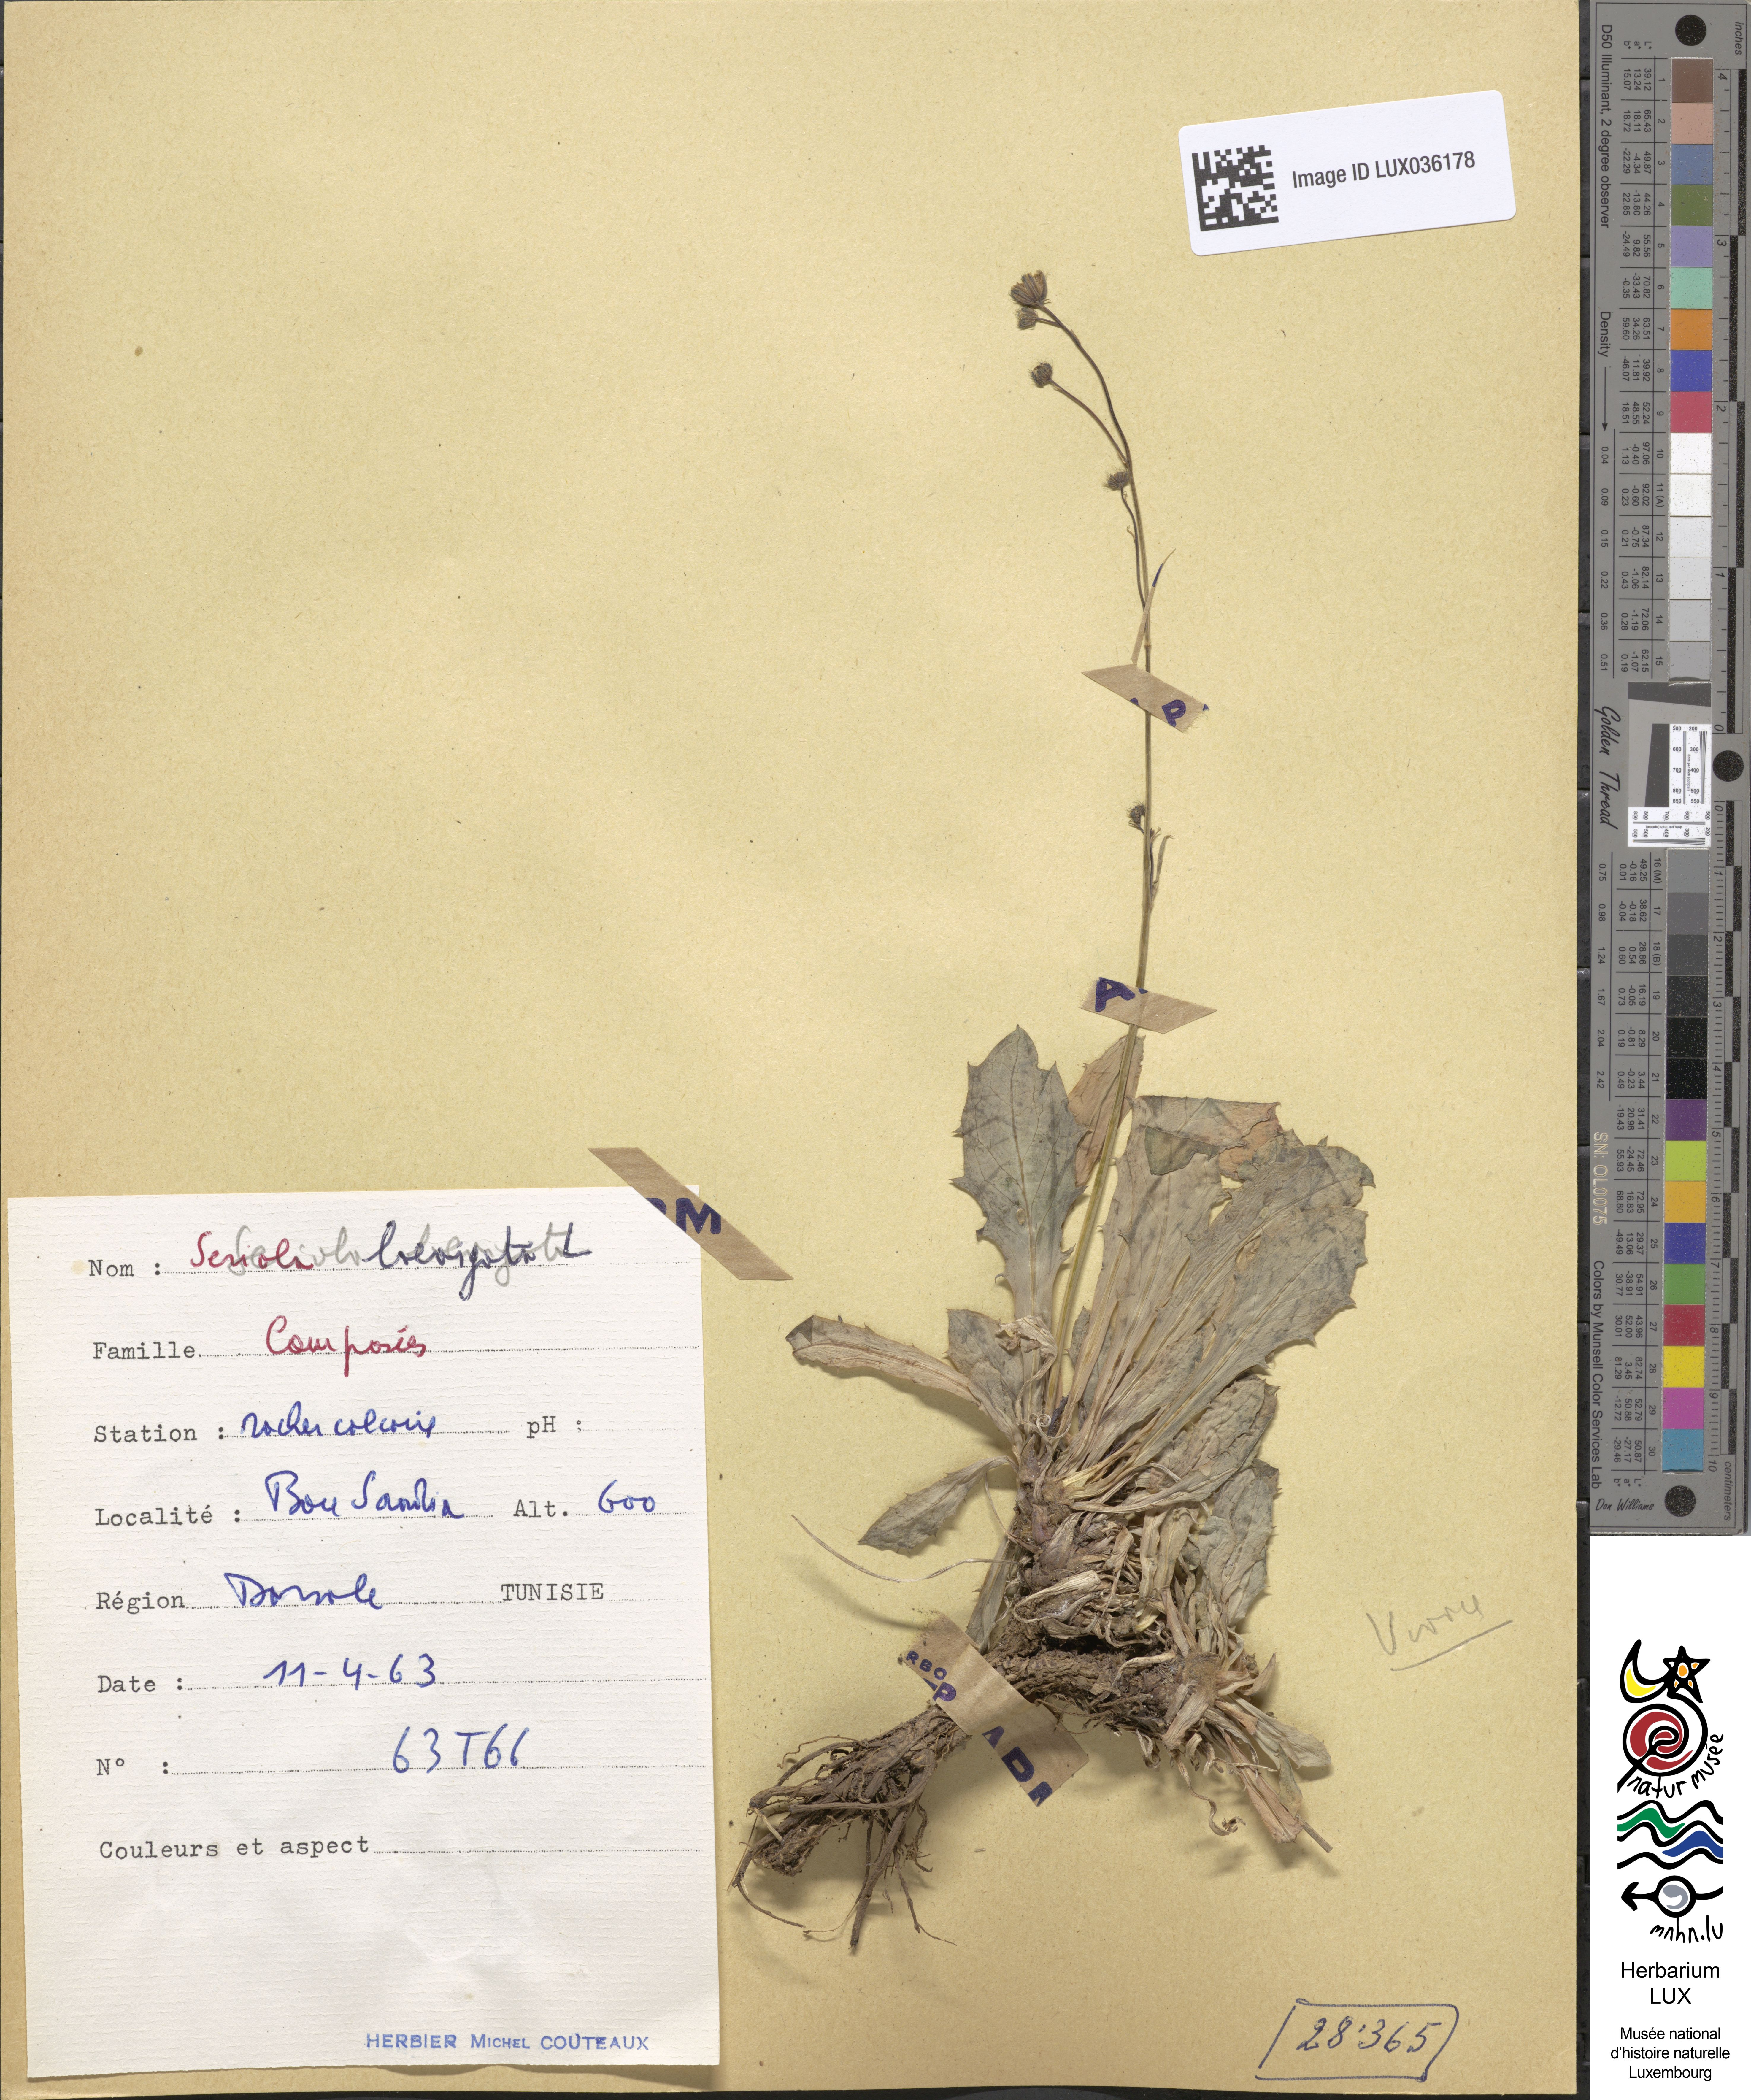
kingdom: Plantae
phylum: Tracheophyta
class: Magnoliopsida
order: Asterales
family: Asteraceae
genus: Hypochoeris
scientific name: Hypochoeris
